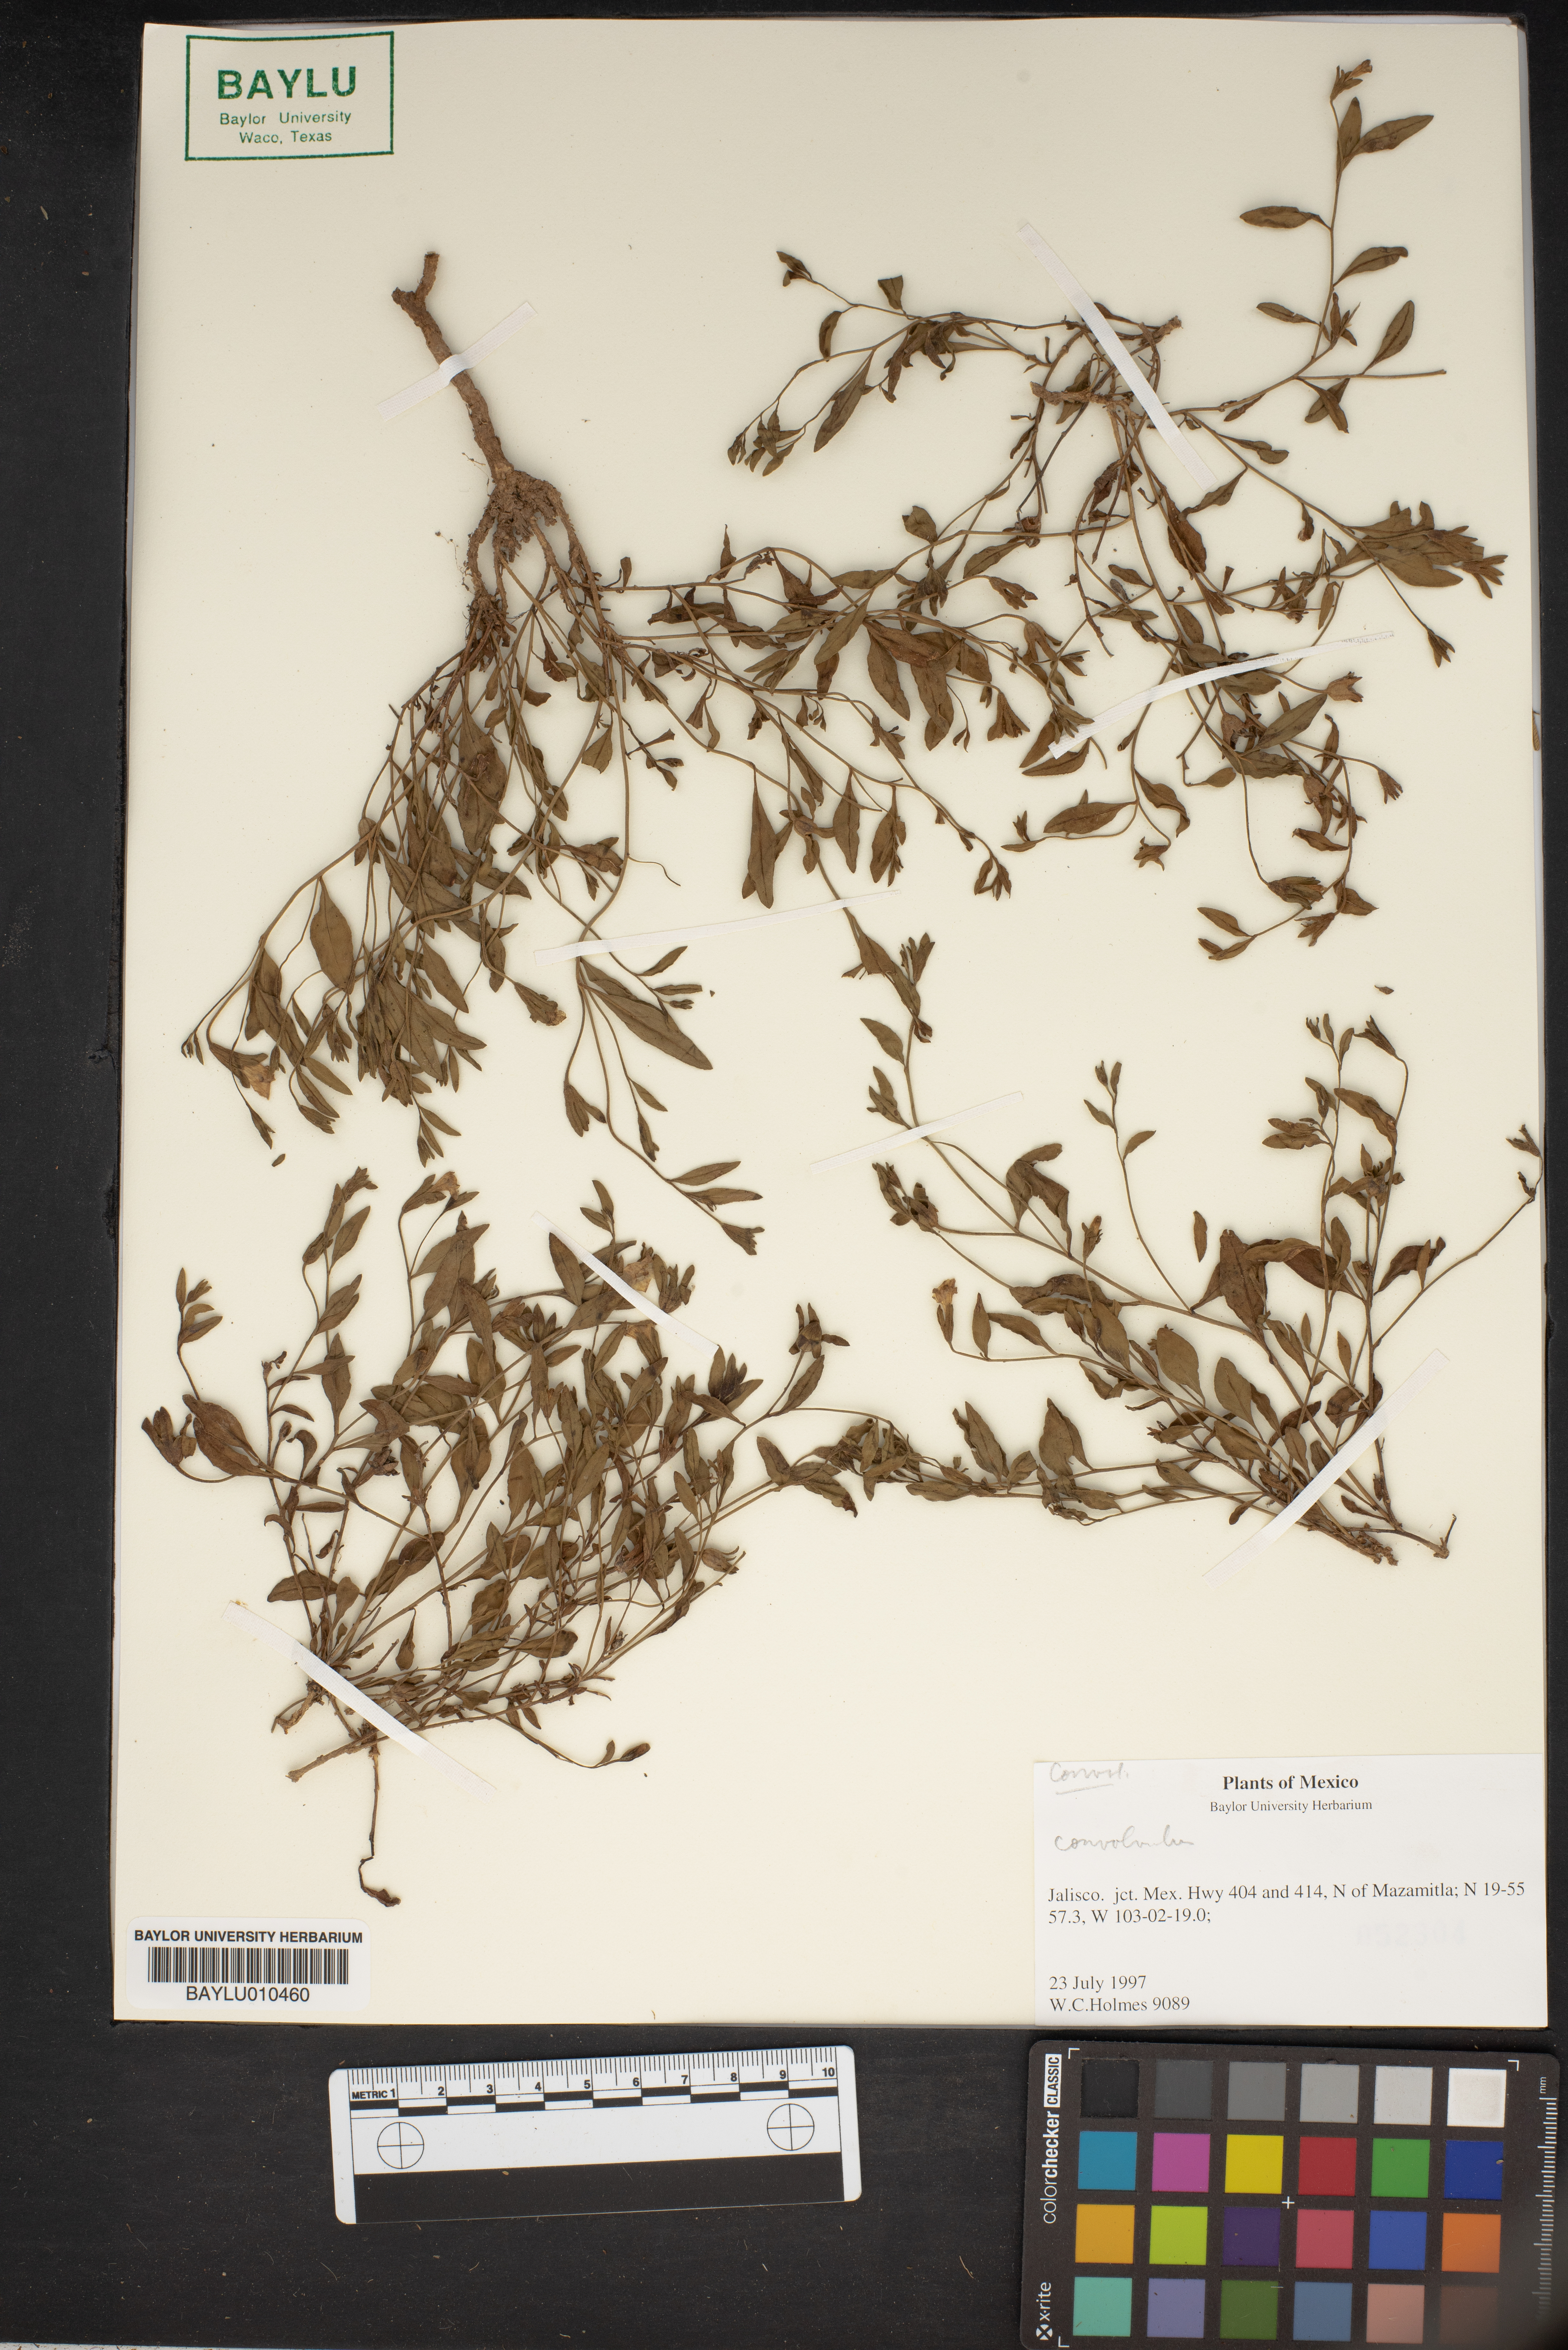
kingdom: Plantae
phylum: Tracheophyta
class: Magnoliopsida
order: Solanales
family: Convolvulaceae
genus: Convolvulus
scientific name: Convolvulus
